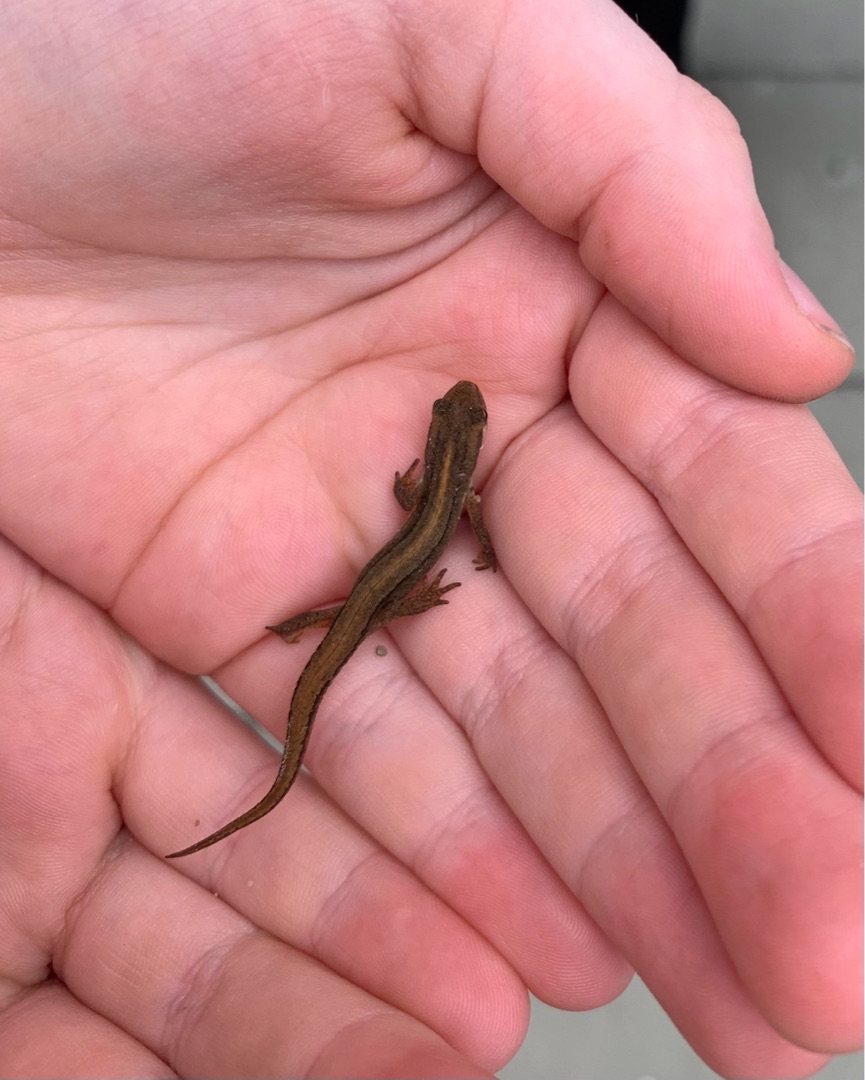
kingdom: Animalia
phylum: Chordata
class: Amphibia
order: Caudata
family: Salamandridae
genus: Lissotriton
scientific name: Lissotriton vulgaris
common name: Lille vandsalamander
